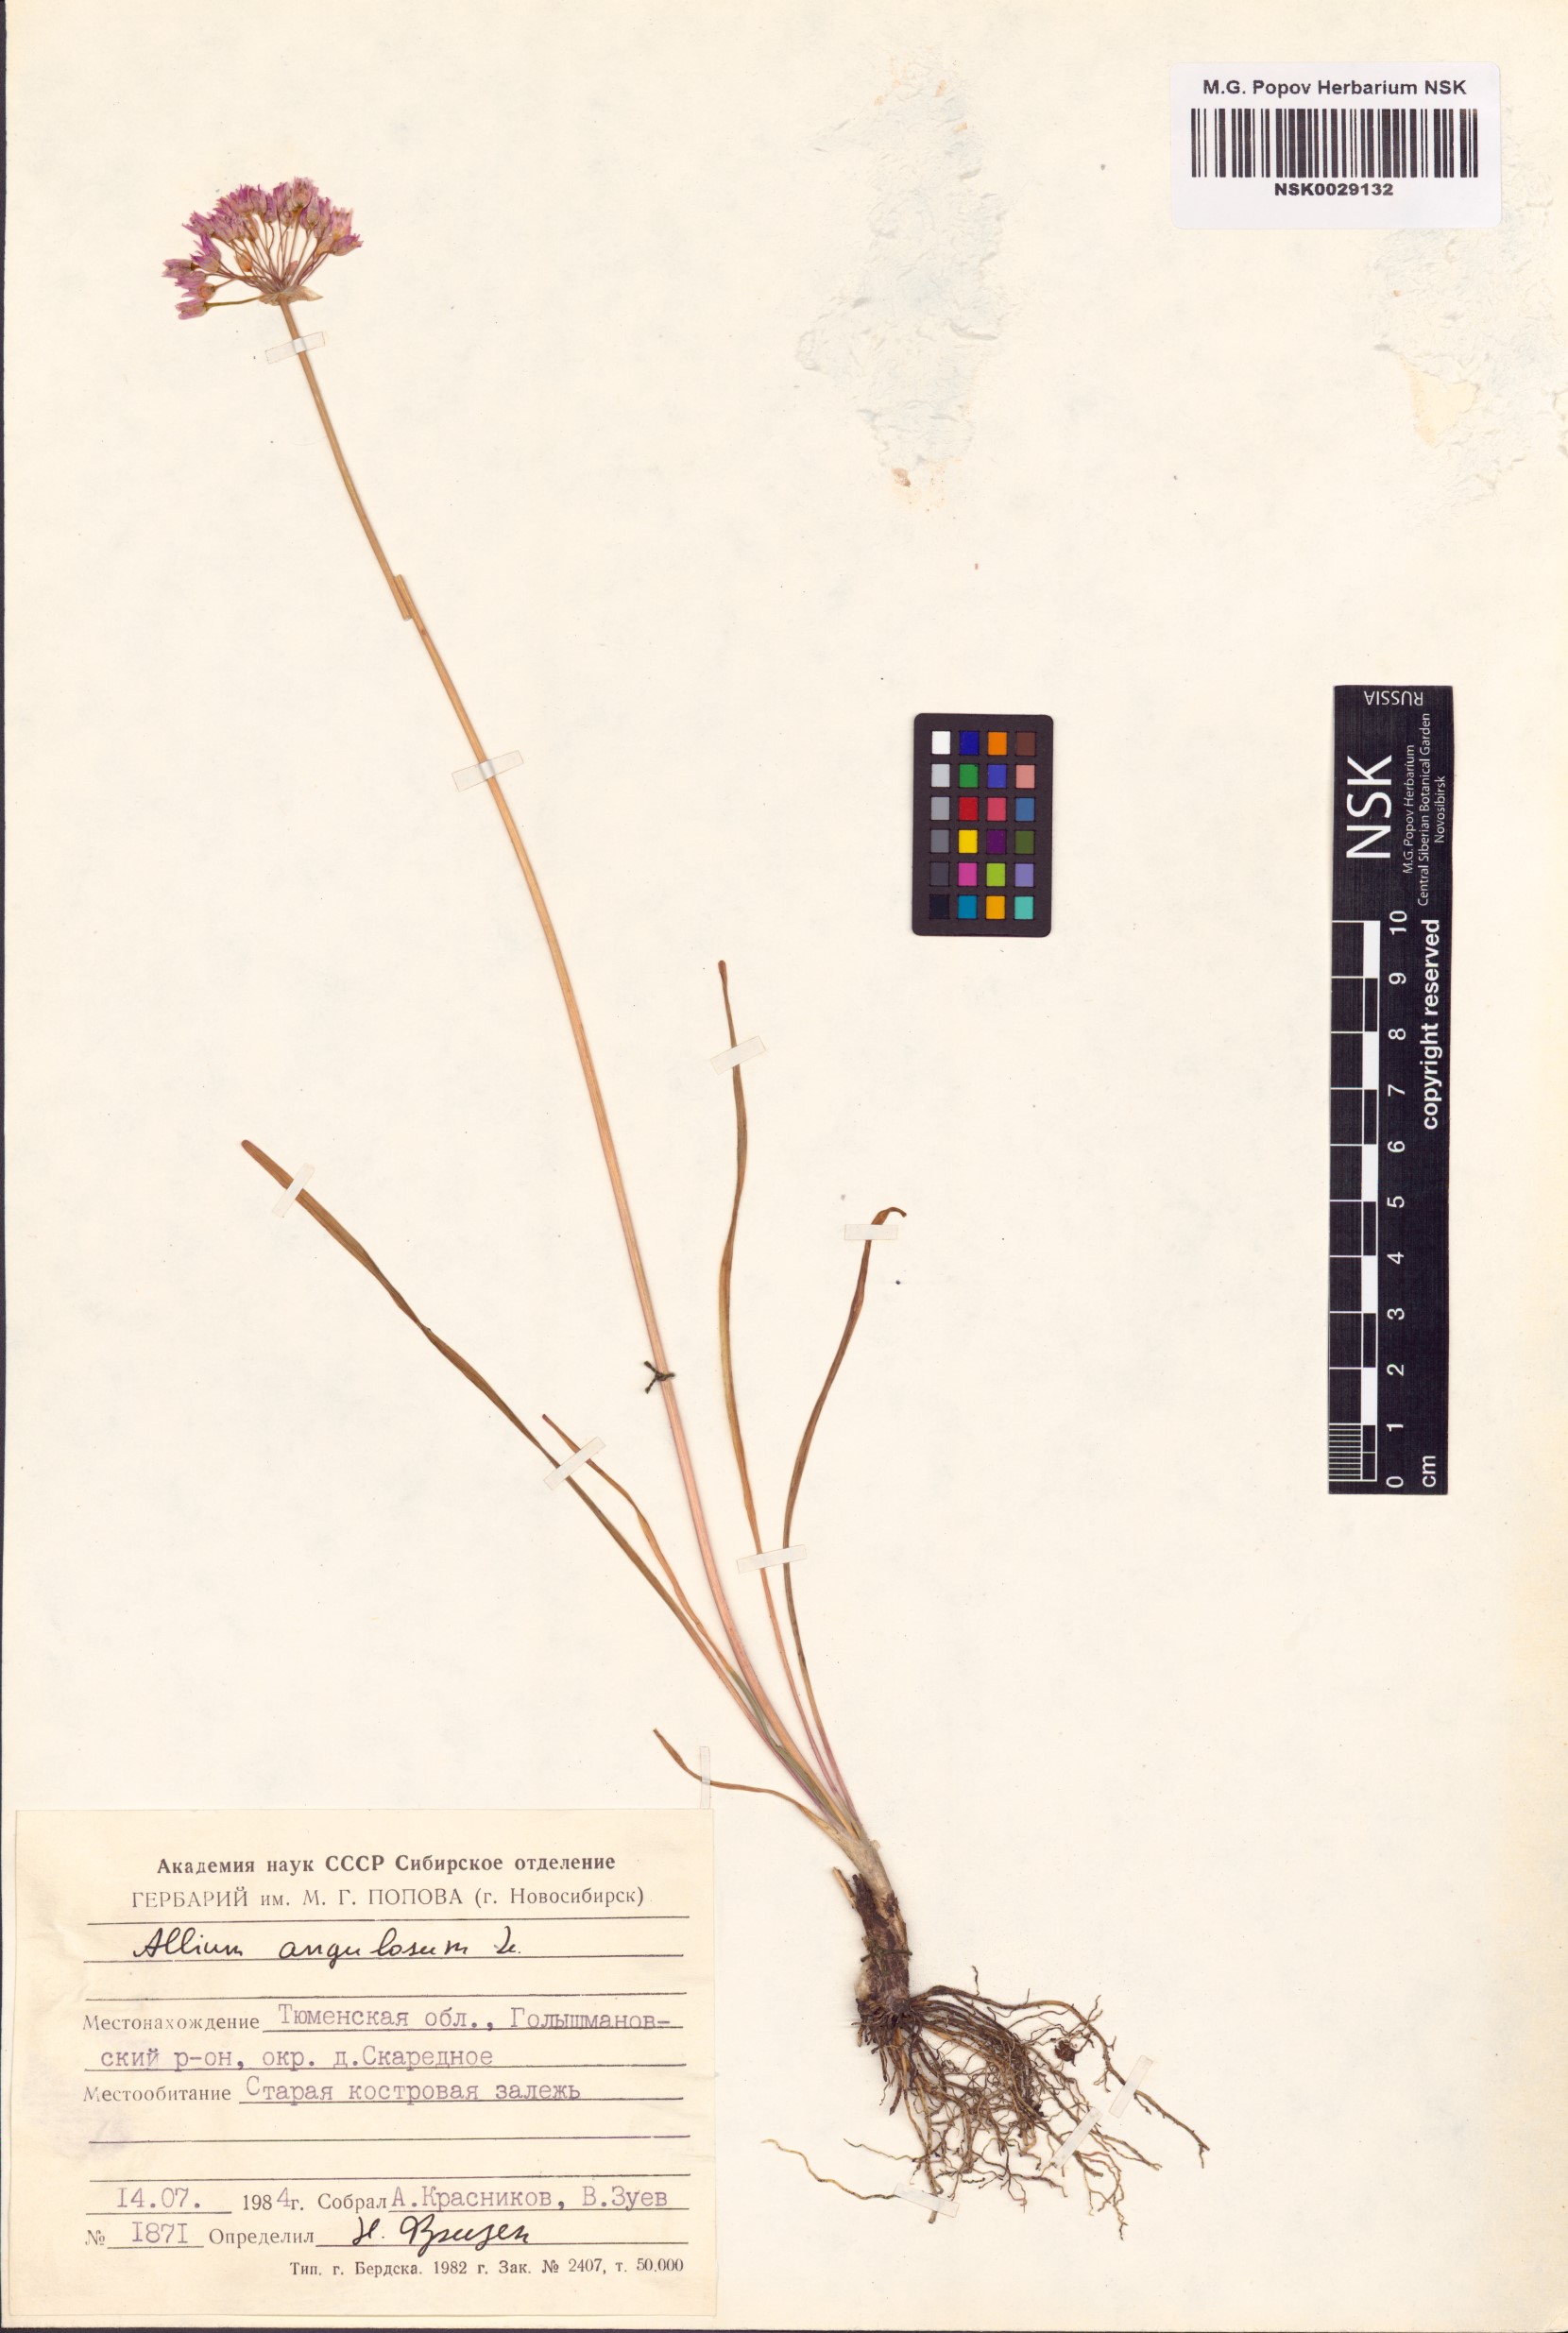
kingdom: Plantae
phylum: Tracheophyta
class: Liliopsida
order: Asparagales
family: Amaryllidaceae
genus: Allium
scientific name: Allium angulosum
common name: Mouse garlic
